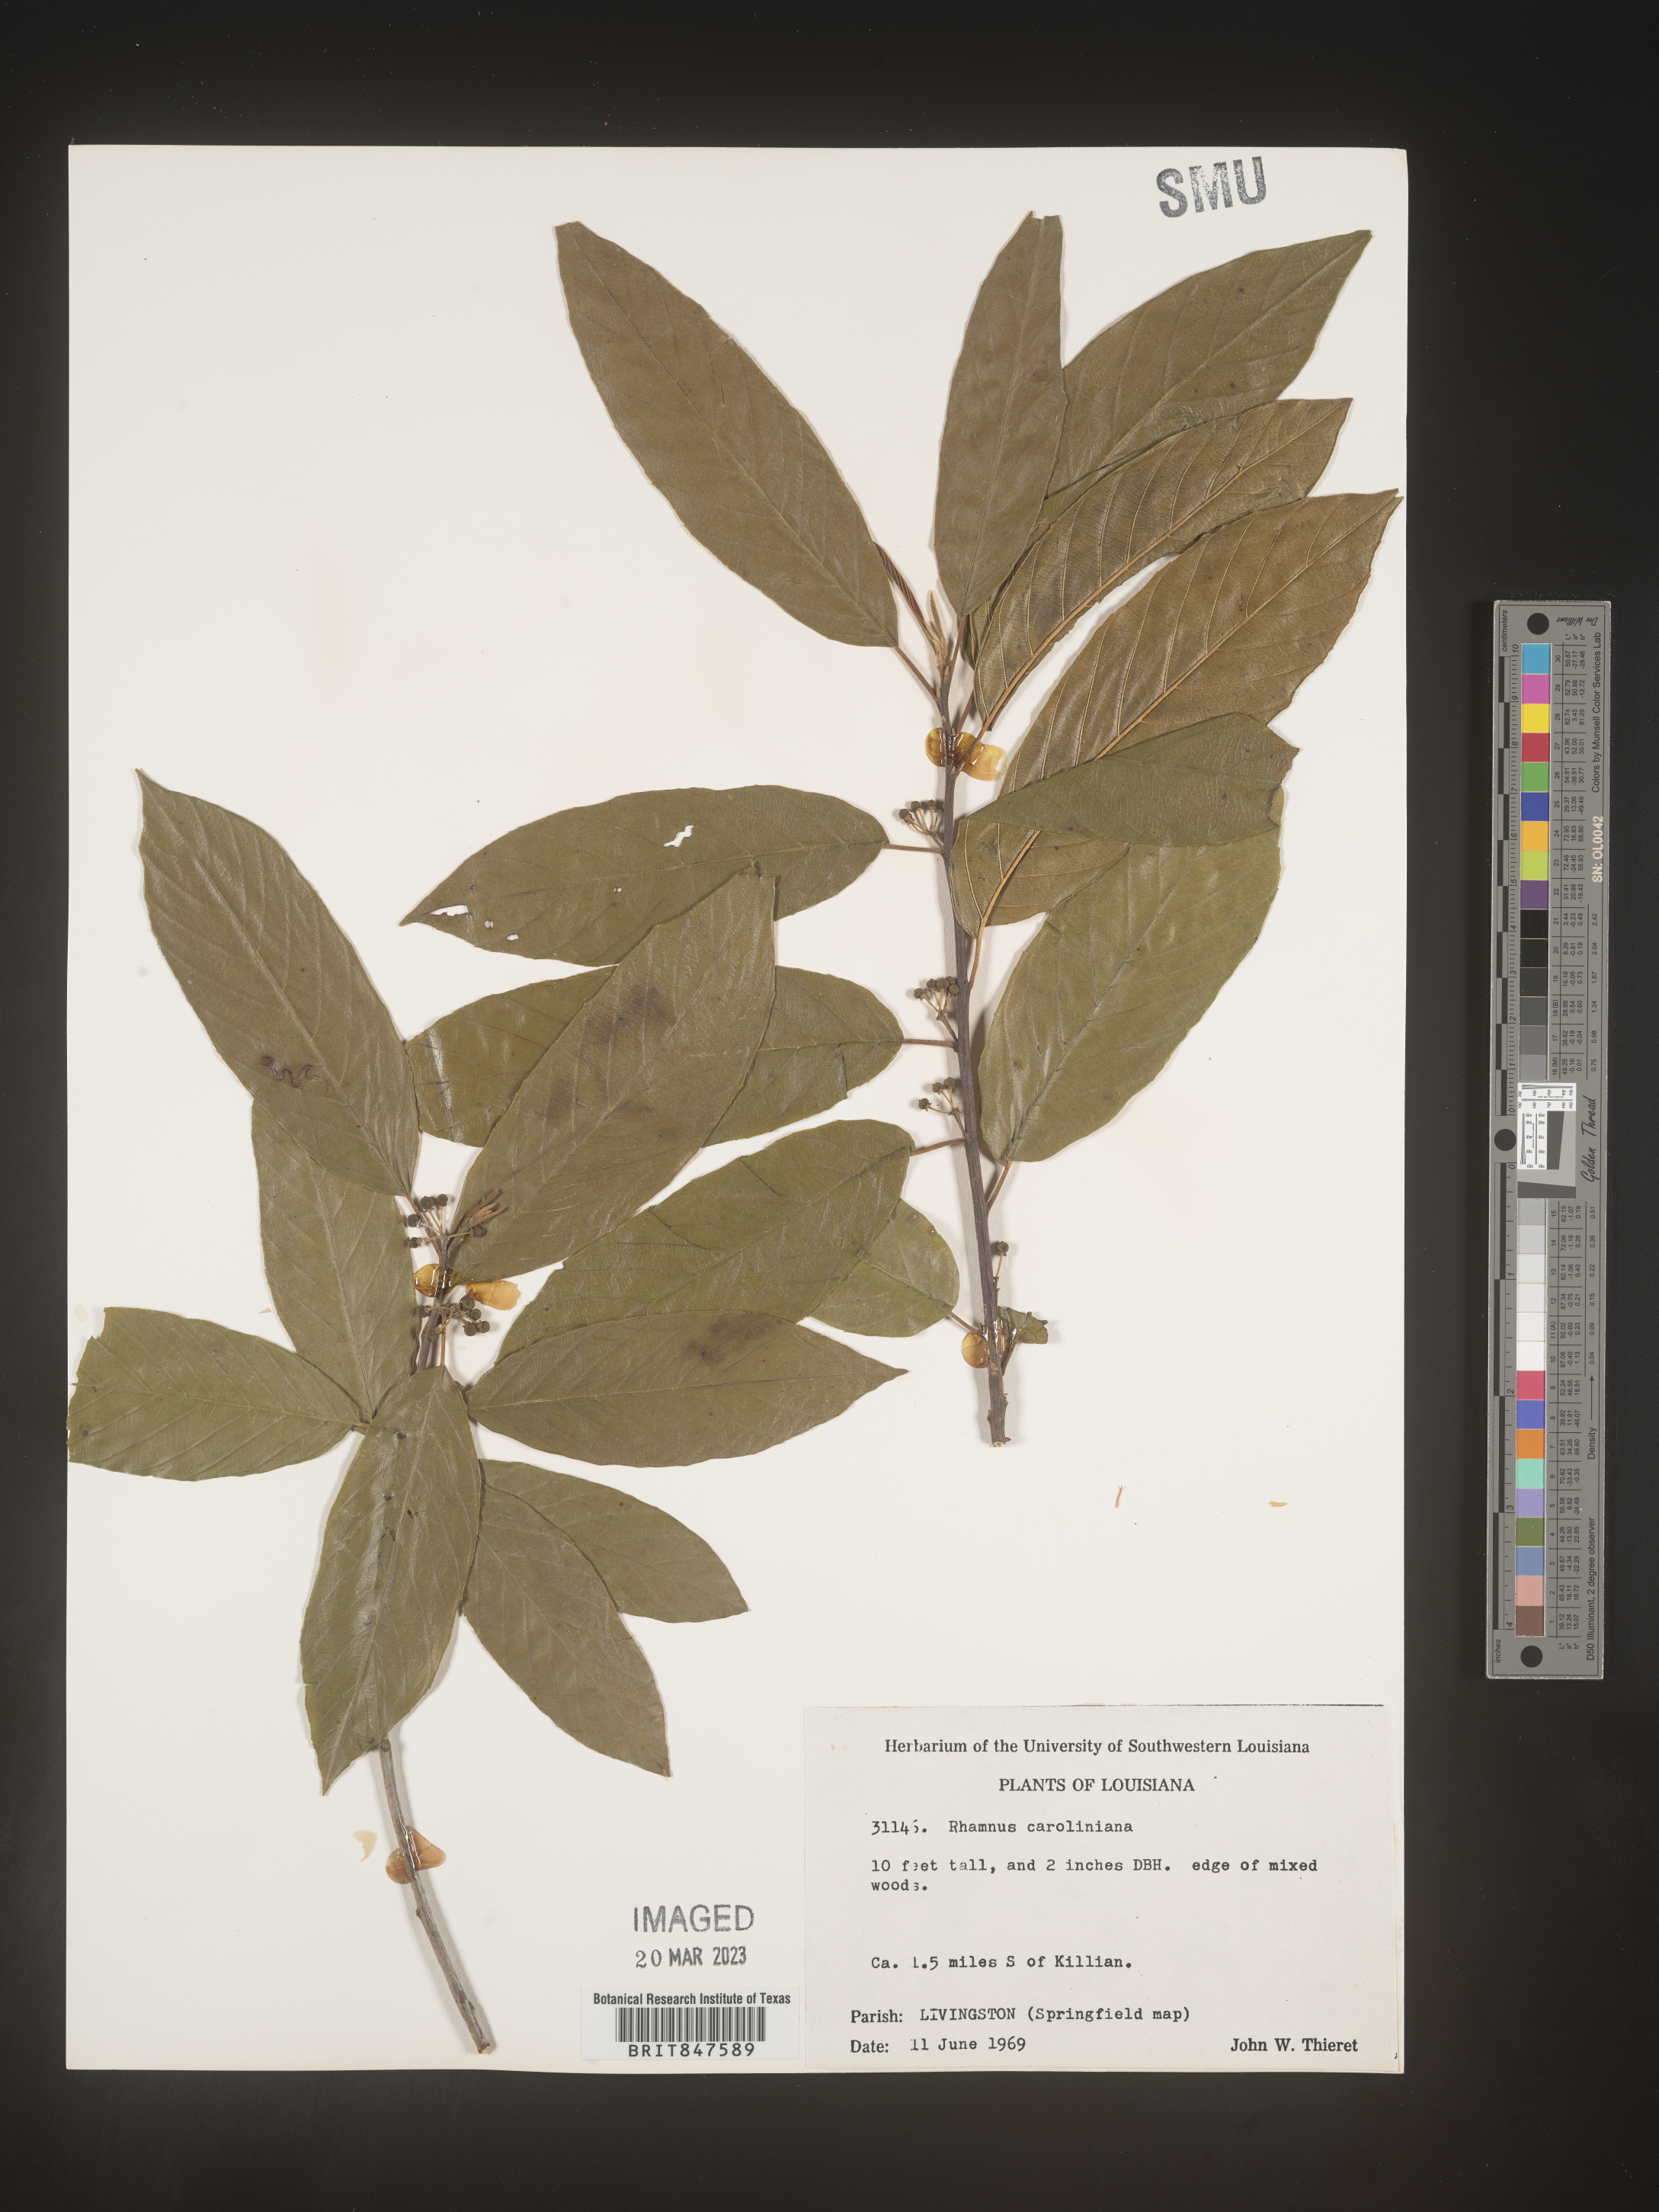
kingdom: Plantae
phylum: Tracheophyta
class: Magnoliopsida
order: Rosales
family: Rhamnaceae
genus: Frangula
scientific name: Frangula caroliniana
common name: Carolina buckthorn
